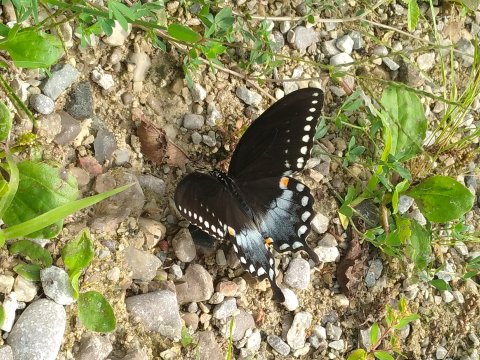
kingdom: Animalia
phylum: Arthropoda
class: Insecta
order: Lepidoptera
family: Papilionidae
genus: Pterourus
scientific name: Pterourus troilus
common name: Spicebush Swallowtail
